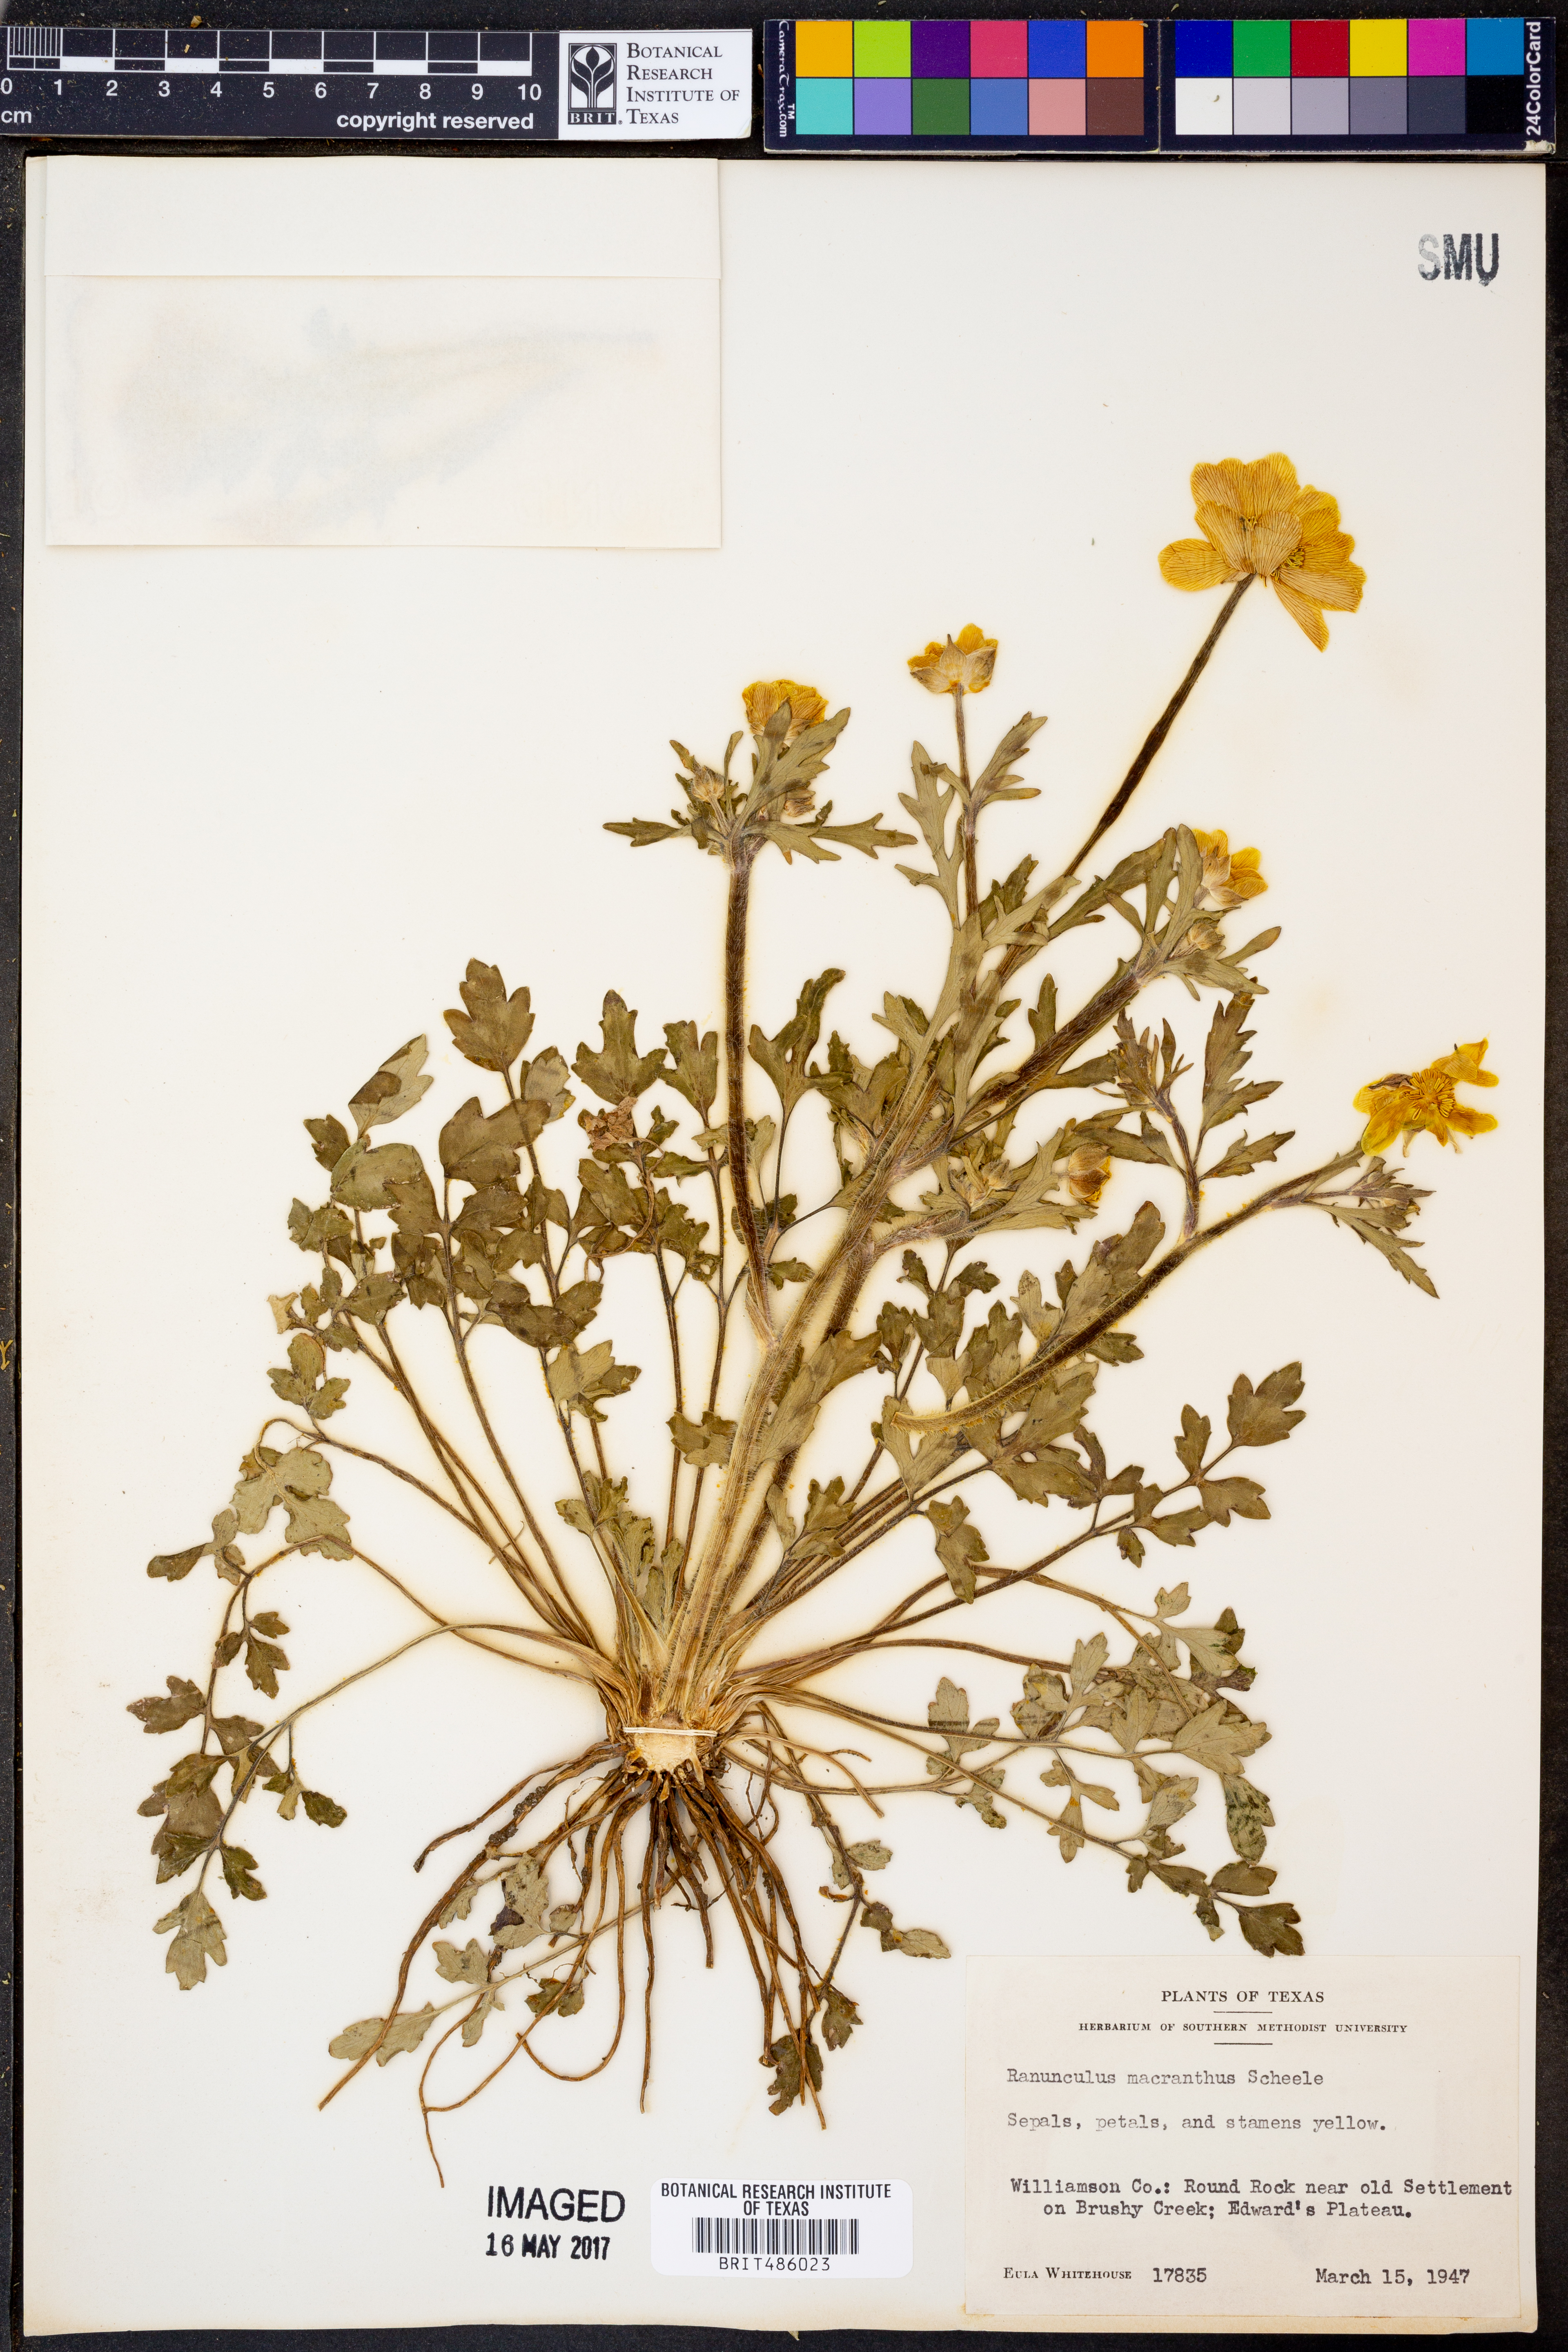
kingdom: Plantae
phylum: Tracheophyta
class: Magnoliopsida
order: Ranunculales
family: Ranunculaceae
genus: Ranunculus
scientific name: Ranunculus macranthus
